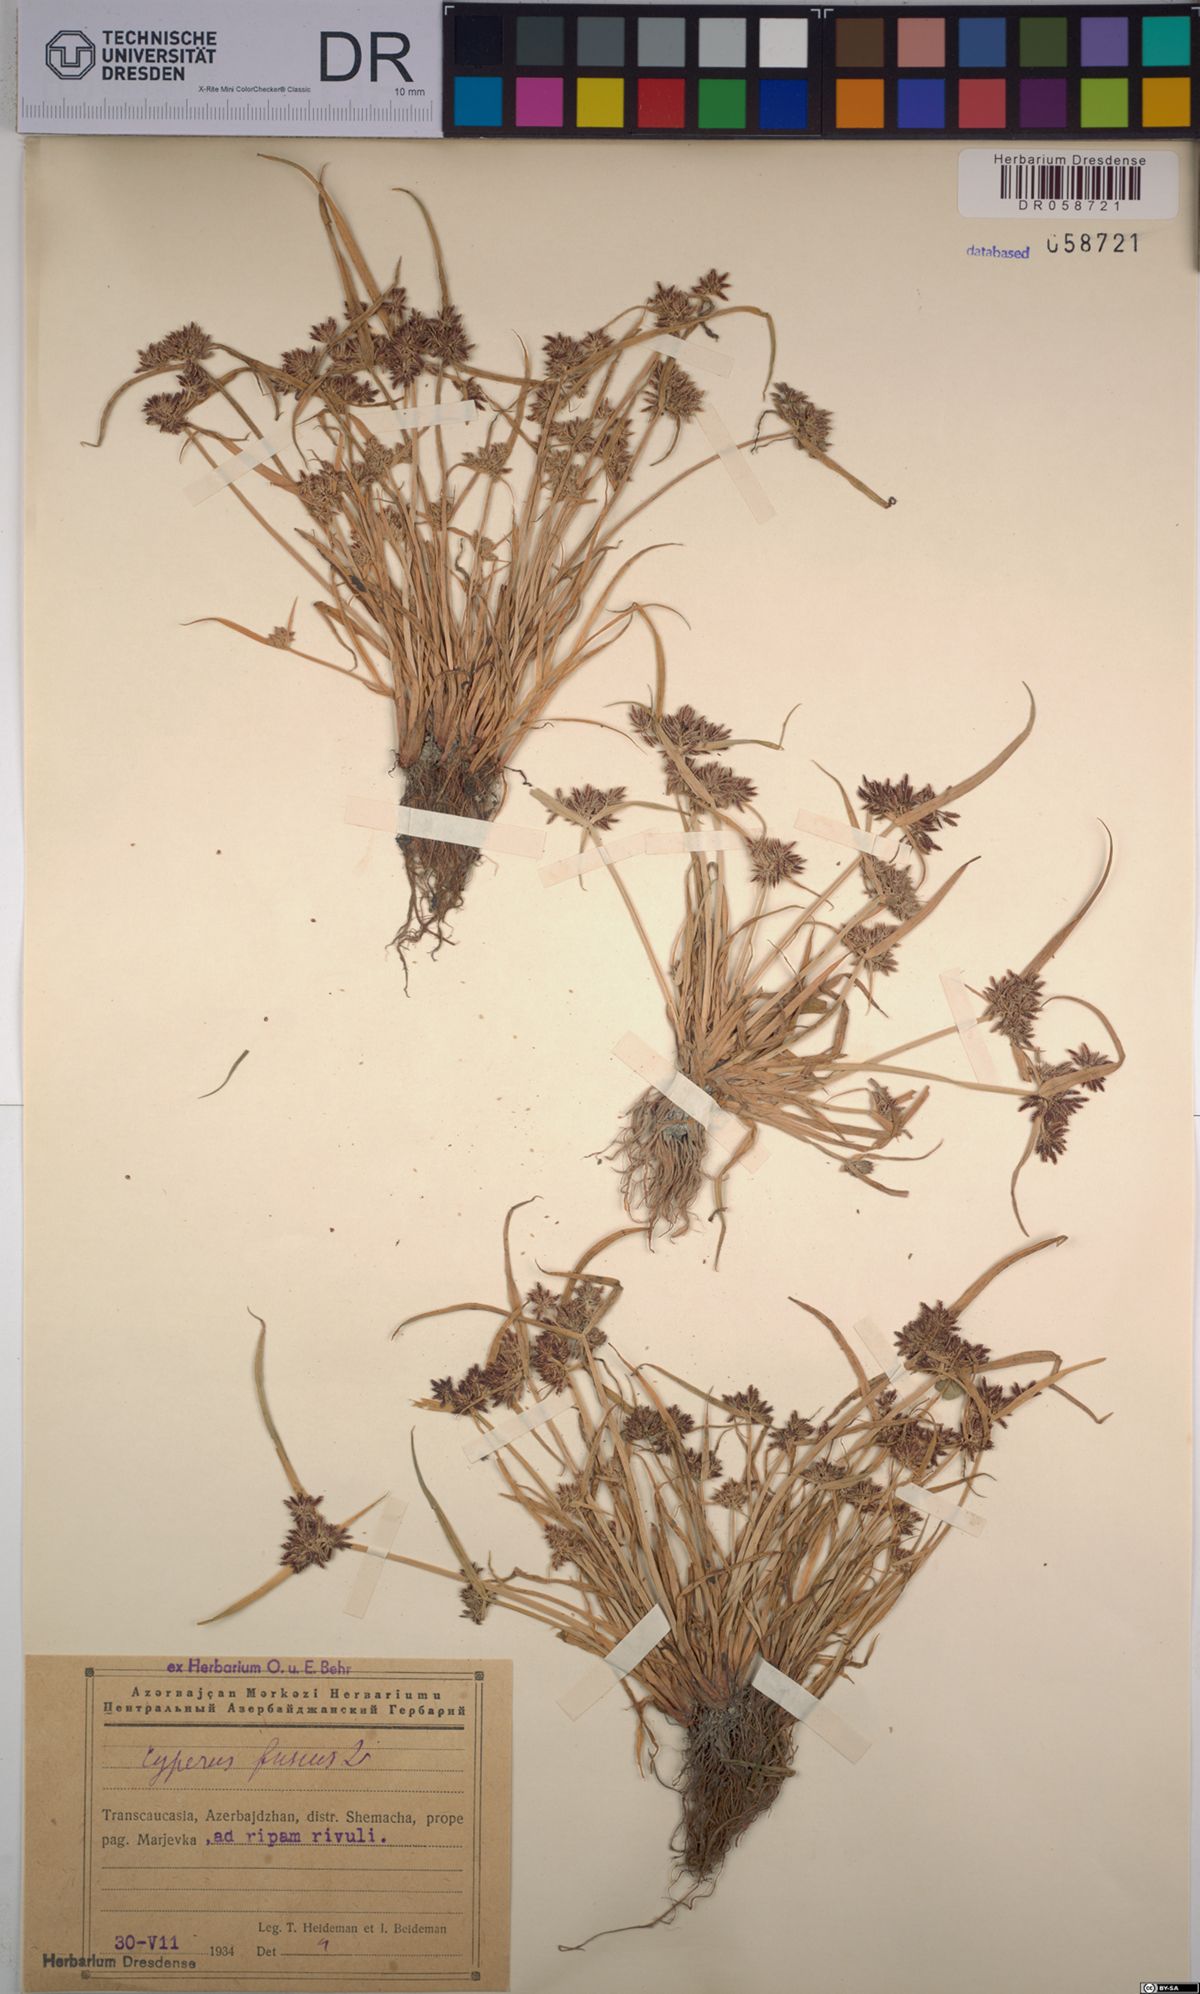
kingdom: Plantae
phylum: Tracheophyta
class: Liliopsida
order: Poales
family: Cyperaceae
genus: Cyperus
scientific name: Cyperus fuscus
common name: Brown galingale
